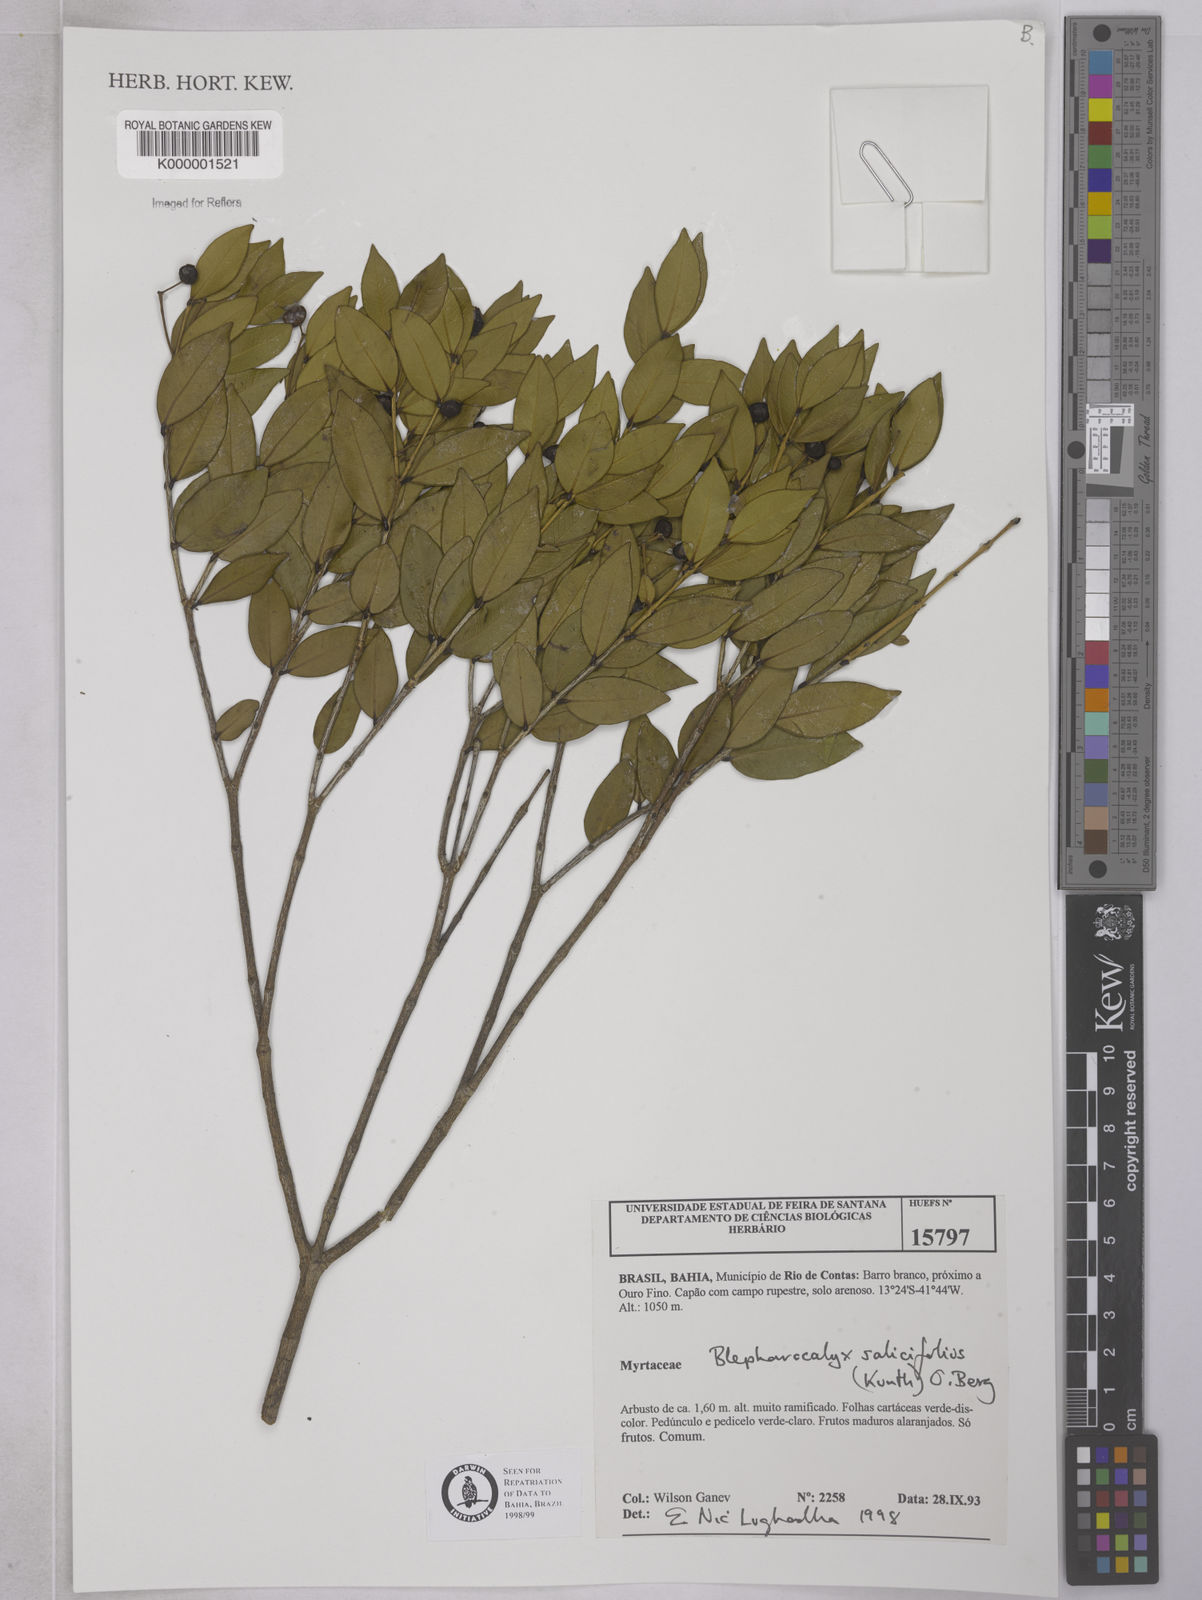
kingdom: Plantae
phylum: Tracheophyta
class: Magnoliopsida
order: Myrtales
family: Myrtaceae
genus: Blepharocalyx
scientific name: Blepharocalyx salicifolius
